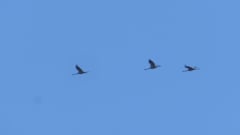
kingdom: Animalia
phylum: Chordata
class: Aves
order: Gruiformes
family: Gruidae
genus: Grus
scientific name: Grus grus
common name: Common crane
